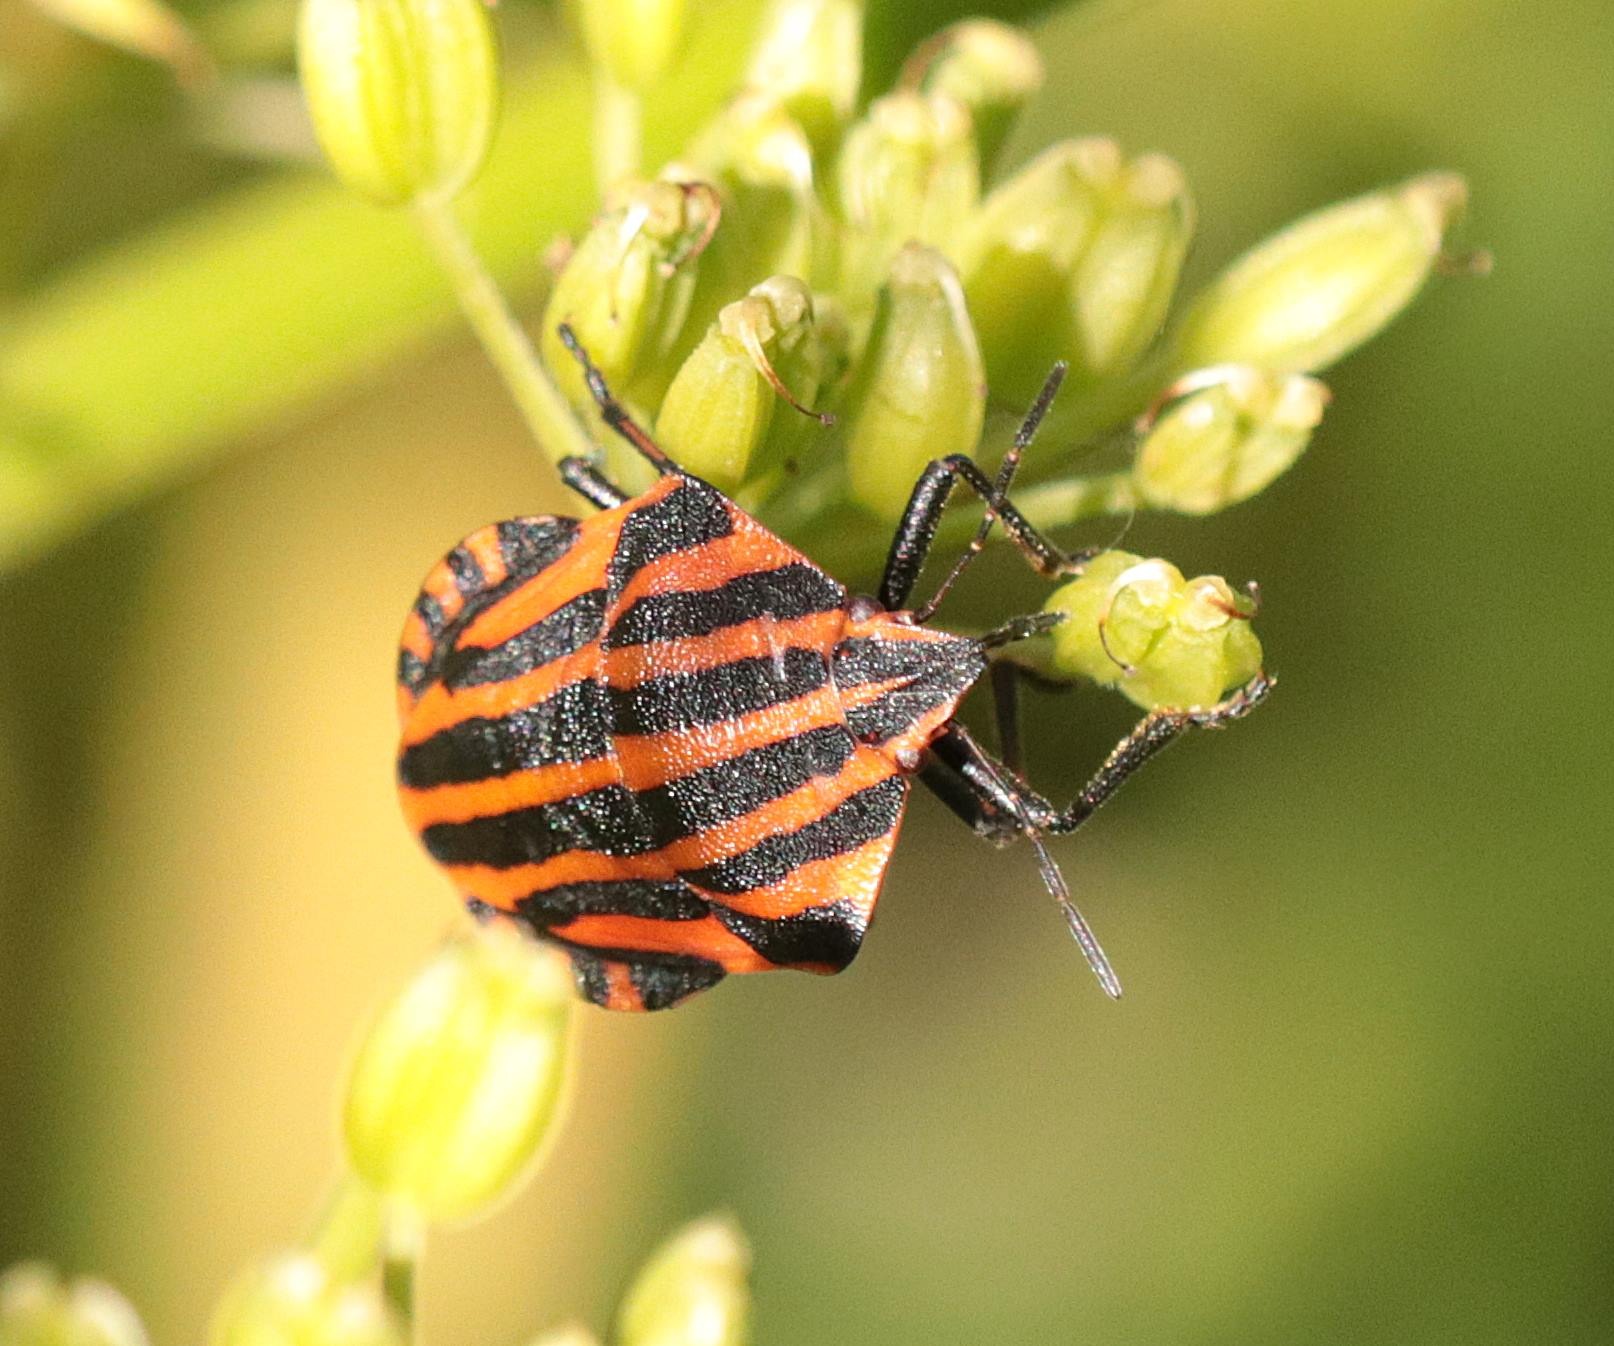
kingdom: Animalia
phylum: Arthropoda
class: Insecta
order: Hemiptera
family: Pentatomidae
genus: Graphosoma
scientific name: Graphosoma italicum
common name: Stribetæge
